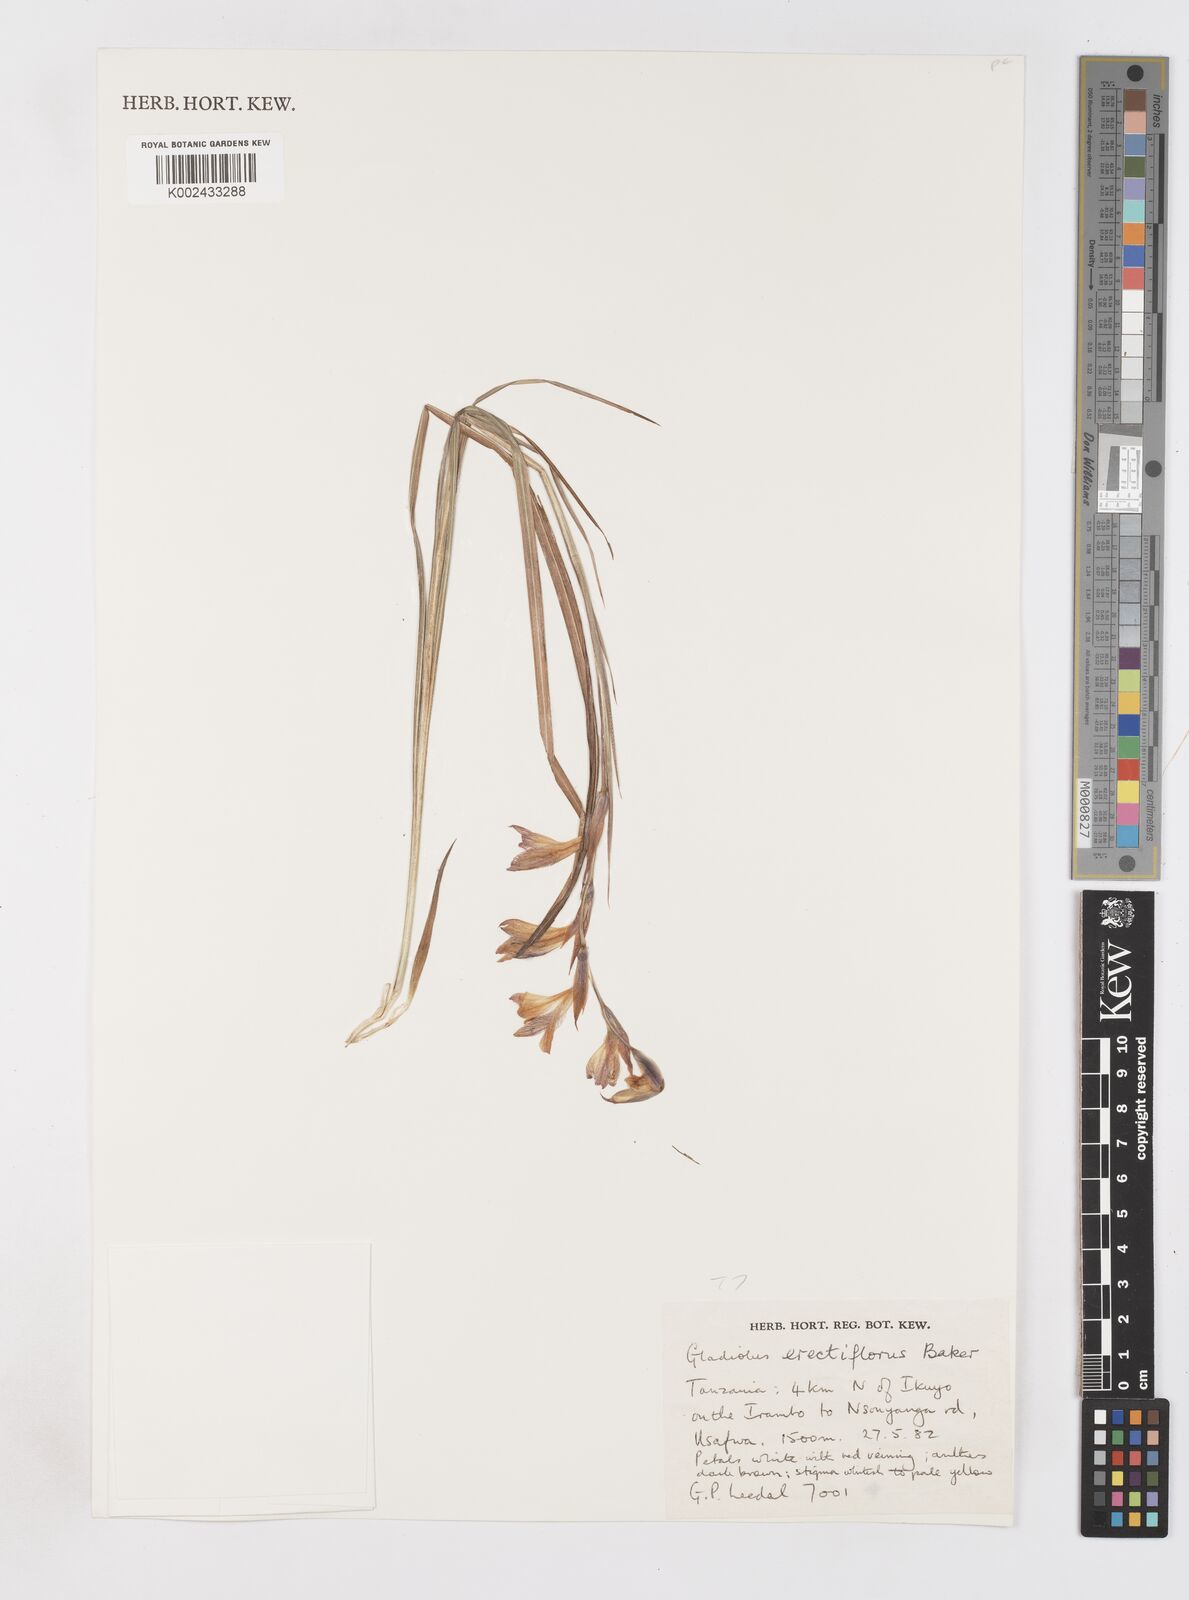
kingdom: Plantae
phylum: Tracheophyta
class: Liliopsida
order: Asparagales
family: Iridaceae
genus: Gladiolus
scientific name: Gladiolus erectiflorus
